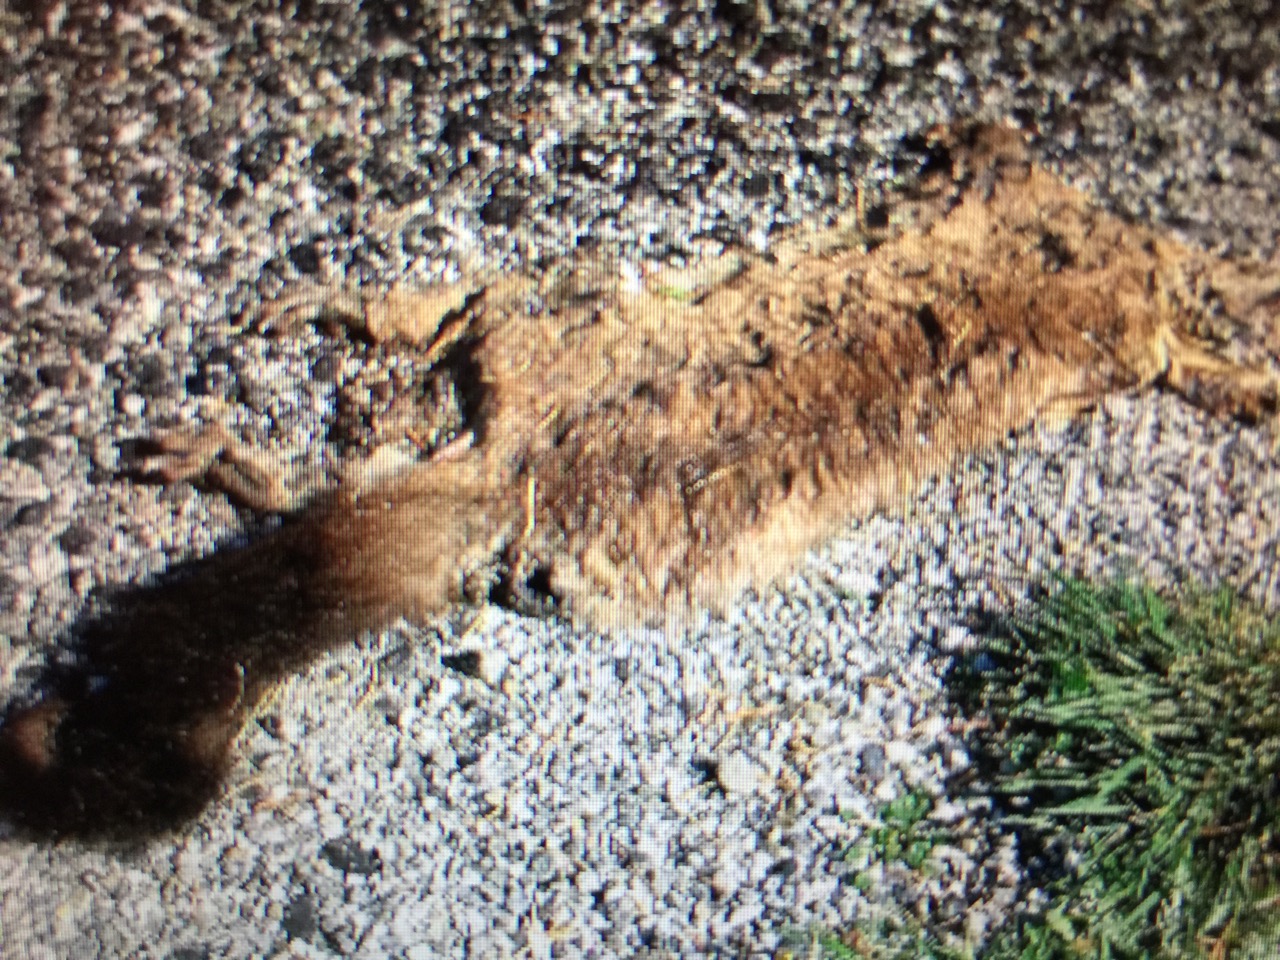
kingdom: Animalia
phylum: Chordata
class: Mammalia
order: Diprotodontia
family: Phalangeridae
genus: Trichosurus
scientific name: Trichosurus vulpecula
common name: Common brushtail
